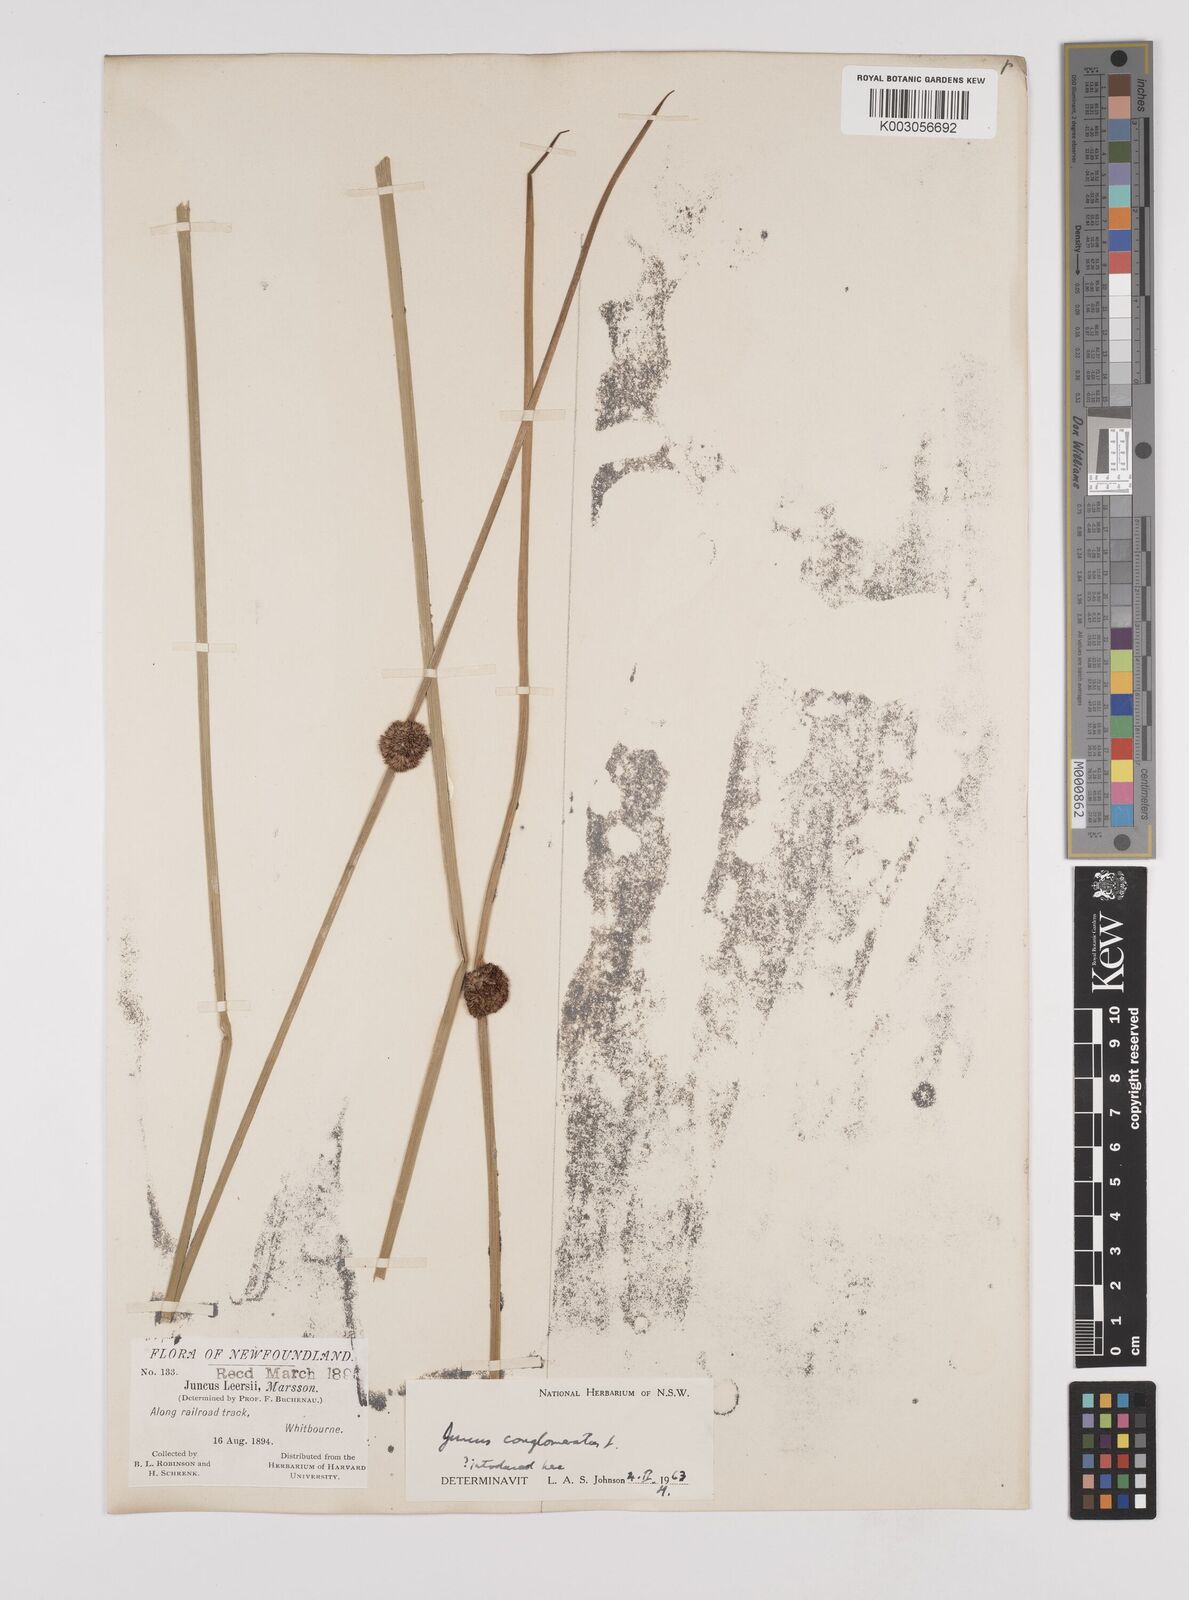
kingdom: Plantae
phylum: Tracheophyta
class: Liliopsida
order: Poales
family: Juncaceae
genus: Juncus
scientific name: Juncus conglomeratus
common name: Compact rush
